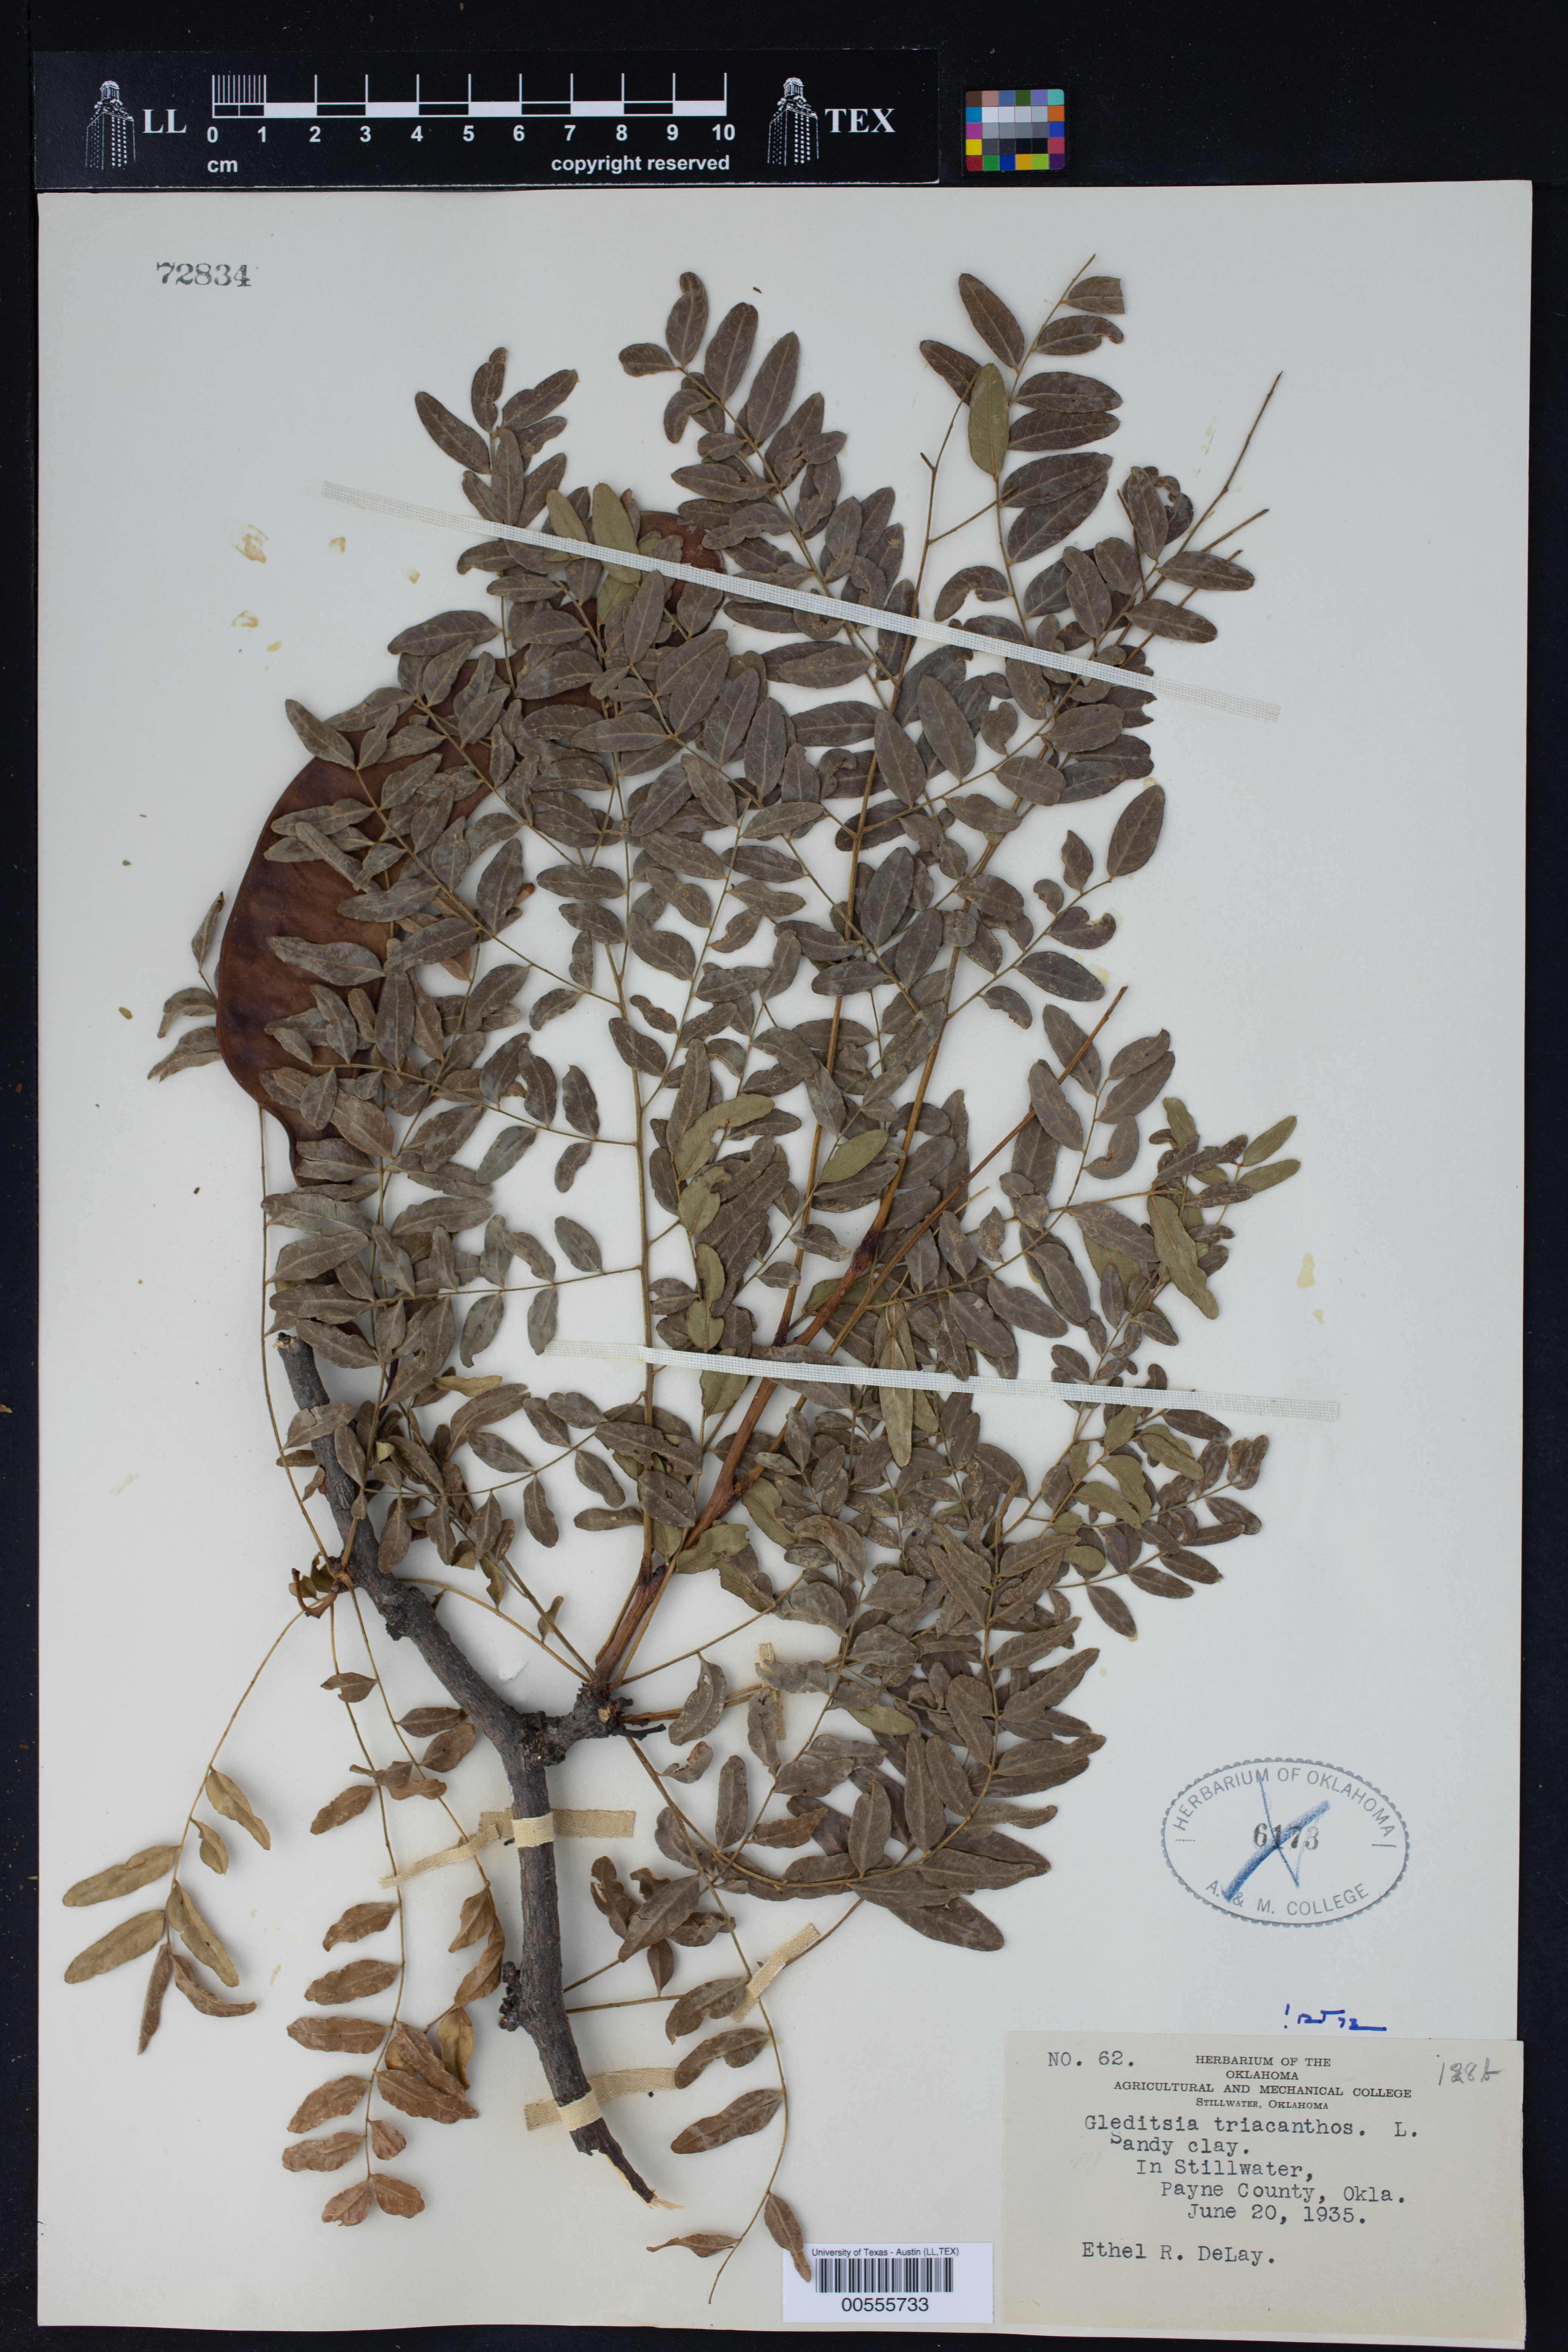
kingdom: Plantae
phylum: Tracheophyta
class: Magnoliopsida
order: Fabales
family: Fabaceae
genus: Gleditsia
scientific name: Gleditsia triacanthos
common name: Common honeylocust
